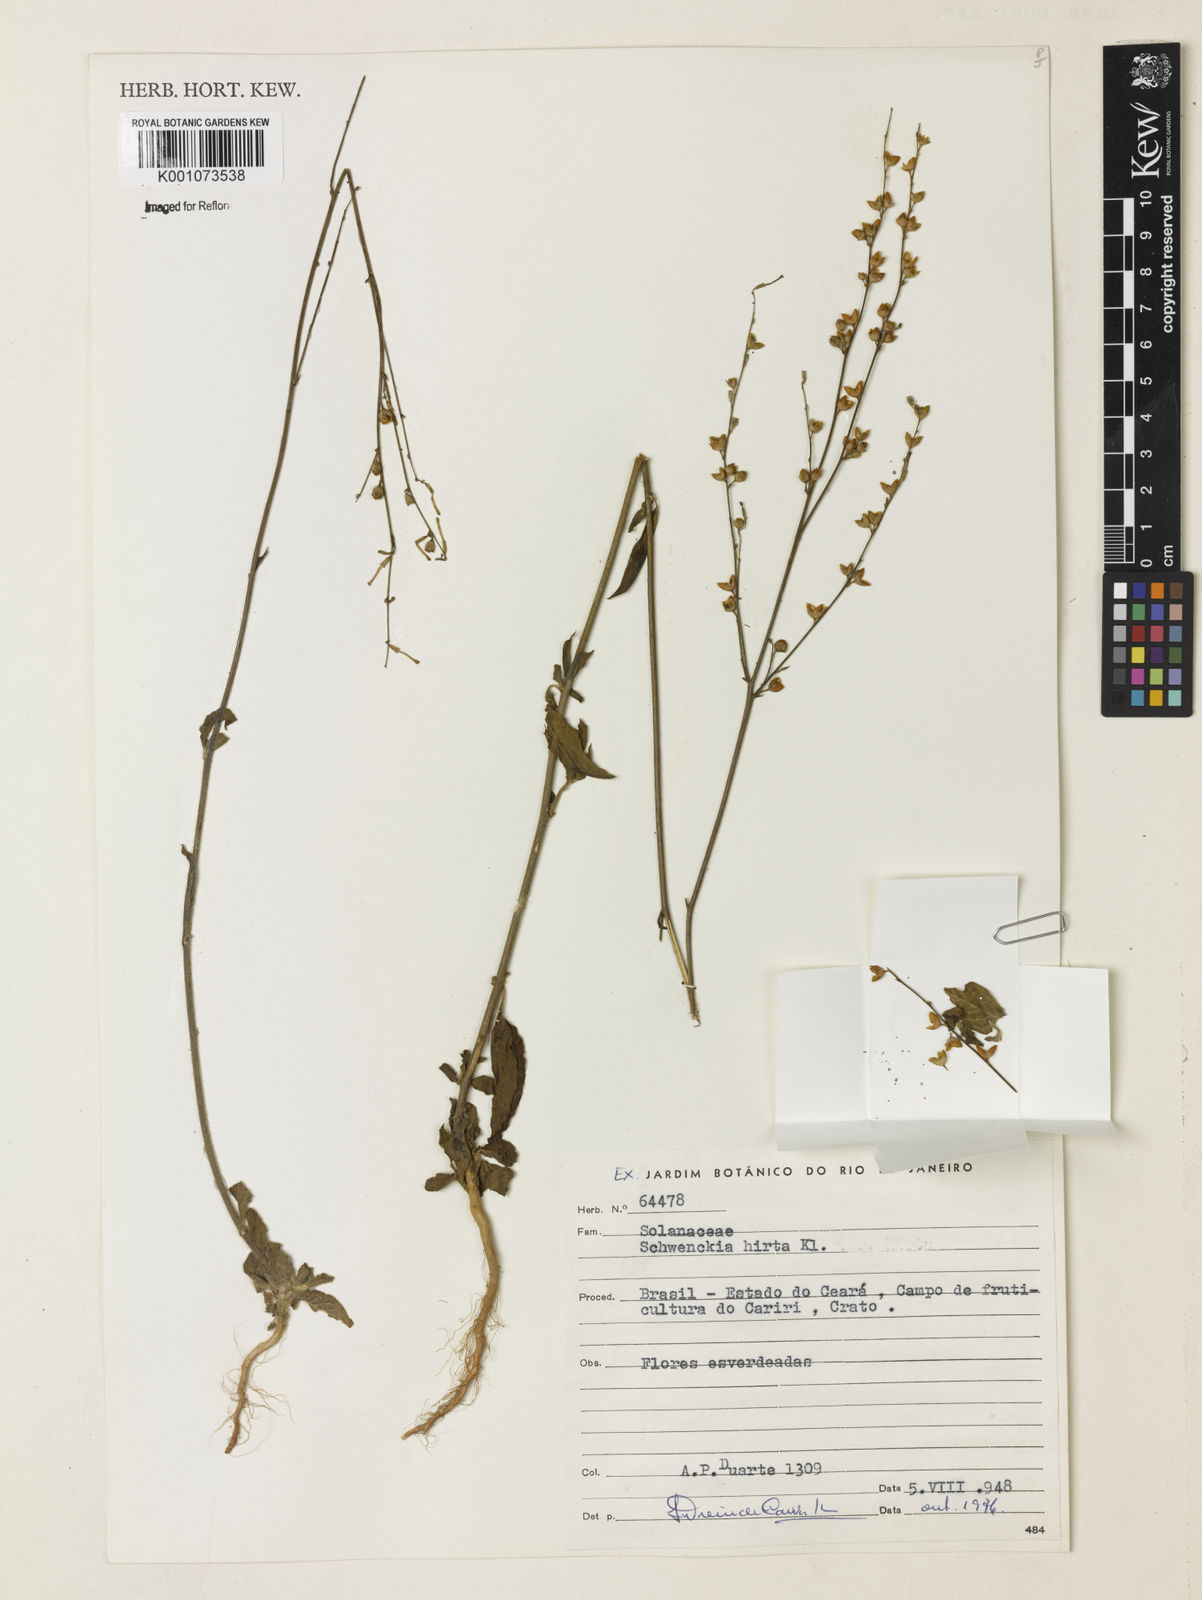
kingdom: Plantae
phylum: Tracheophyta
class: Magnoliopsida
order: Solanales
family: Solanaceae
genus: Schwenckia
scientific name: Schwenckia americana
